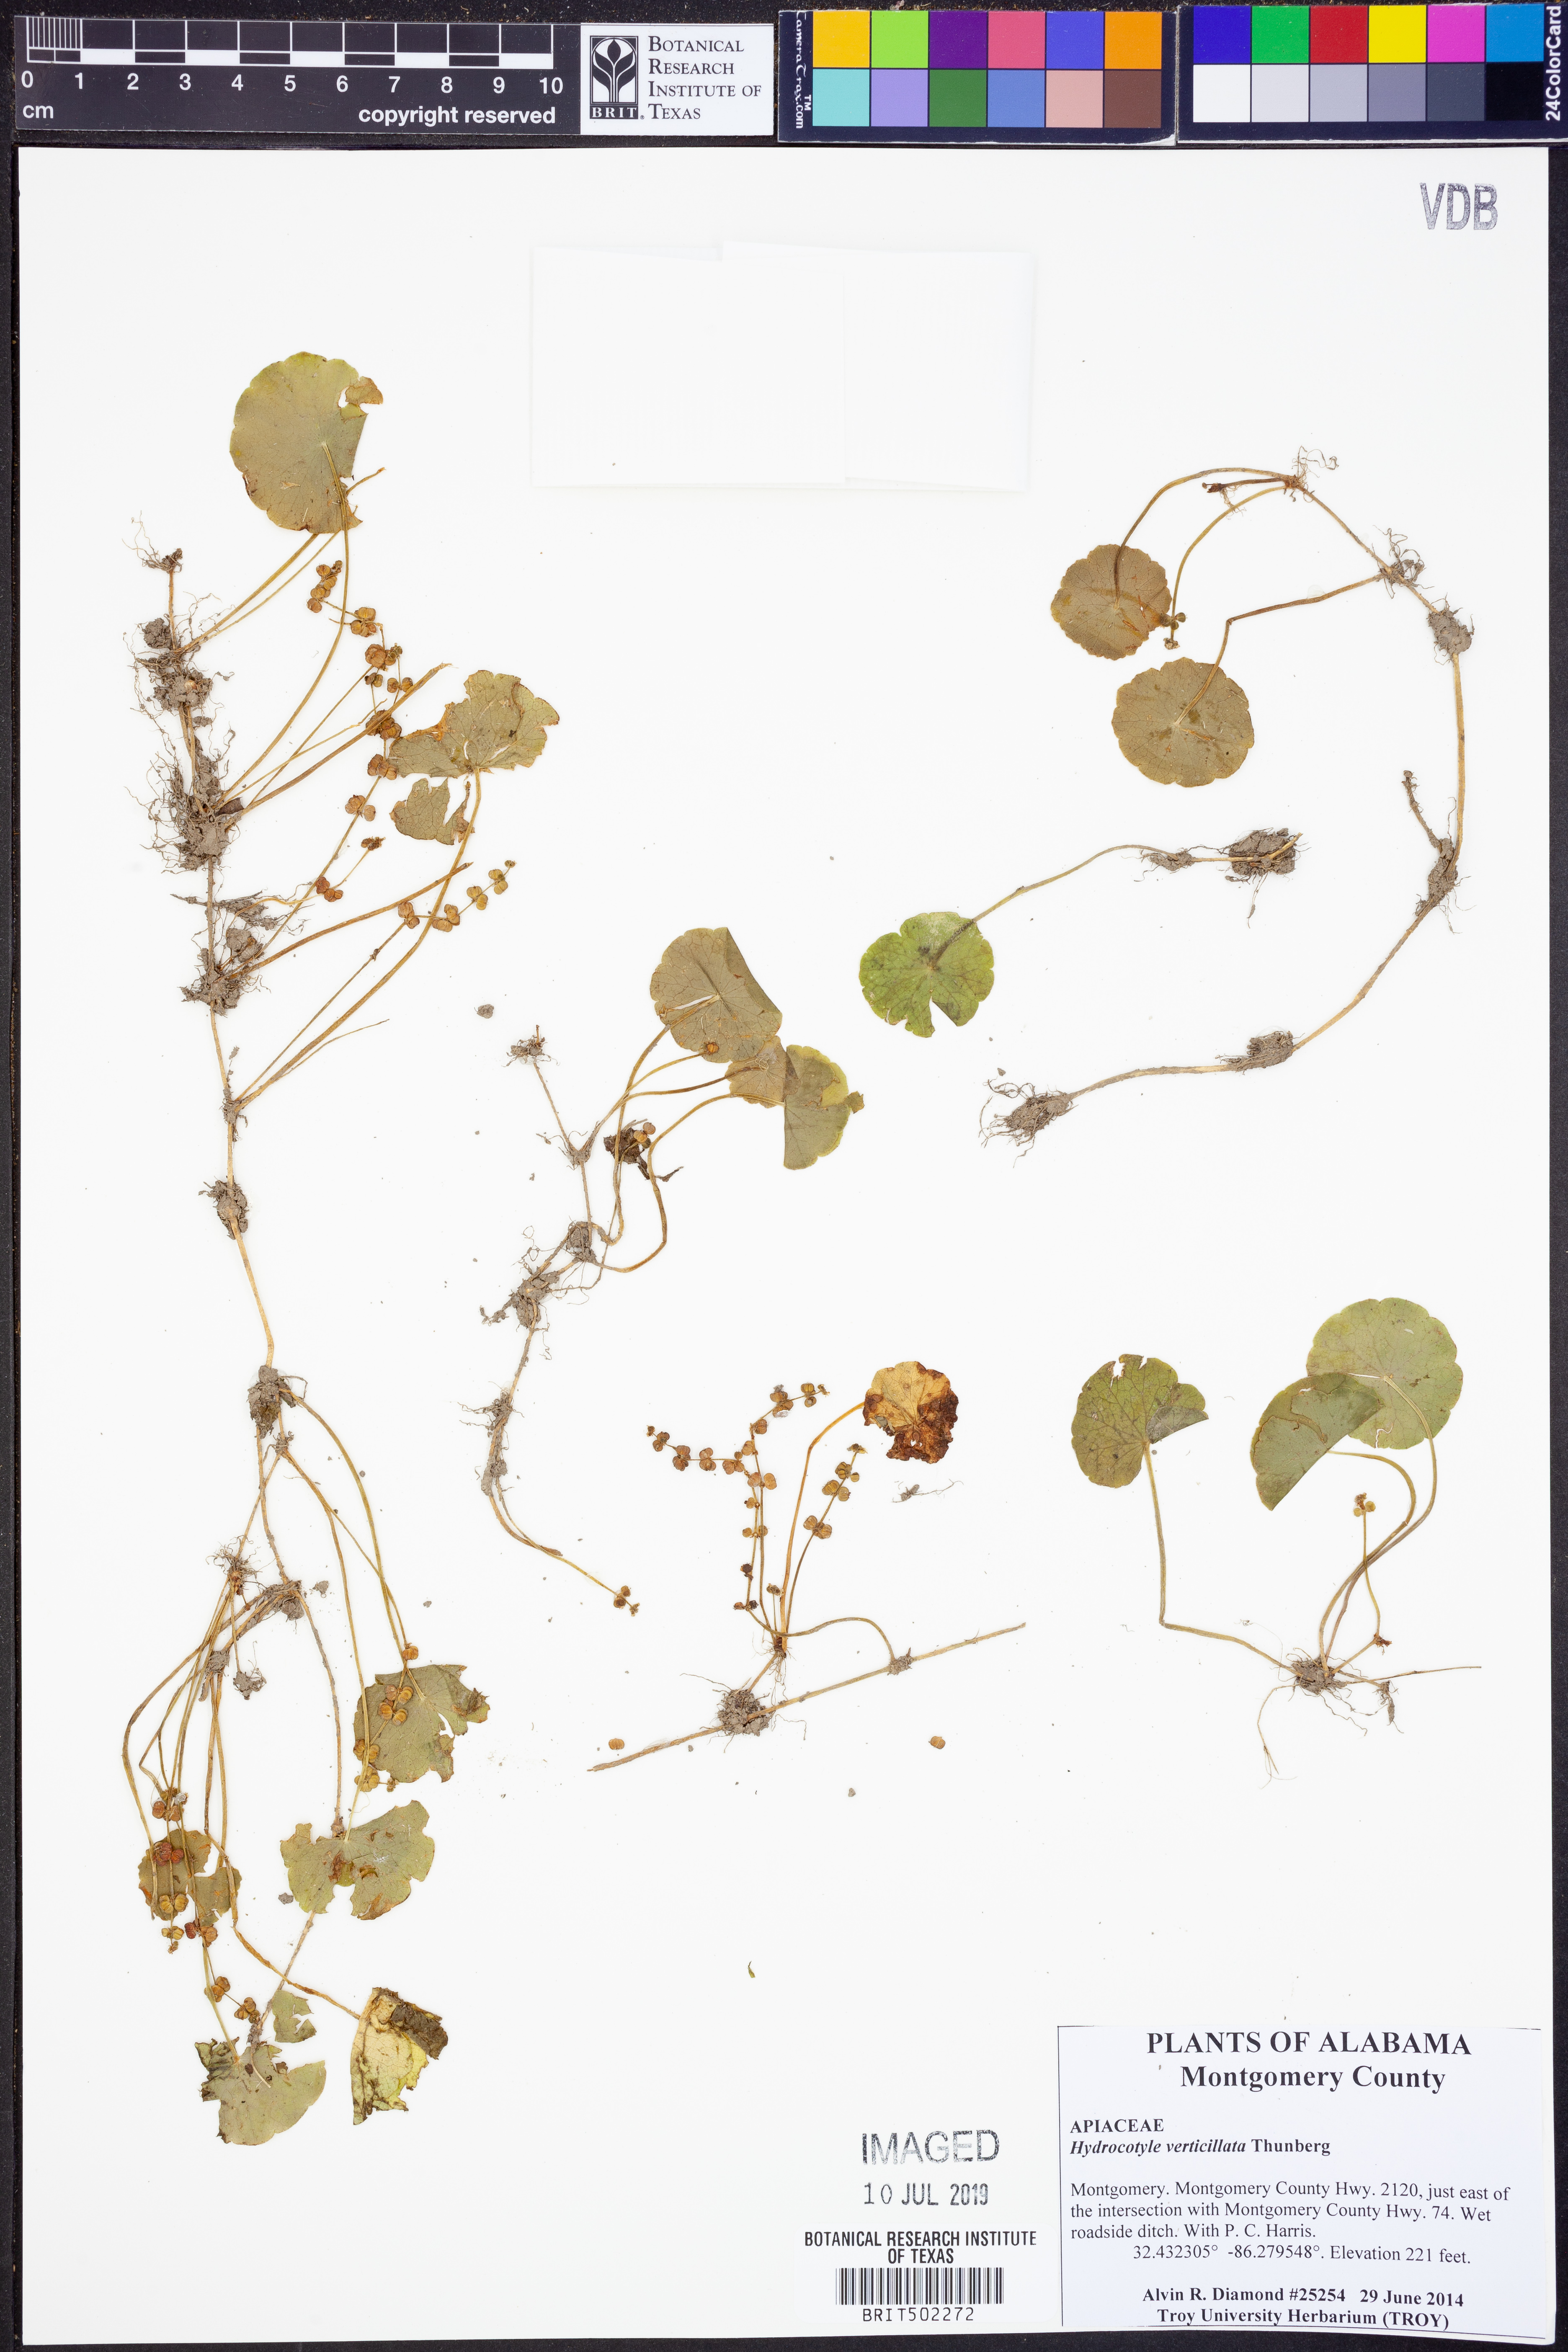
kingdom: Plantae
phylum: Tracheophyta
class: Magnoliopsida
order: Apiales
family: Araliaceae
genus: Hydrocotyle
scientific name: Hydrocotyle verticillata
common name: Whorled marshpennywort
